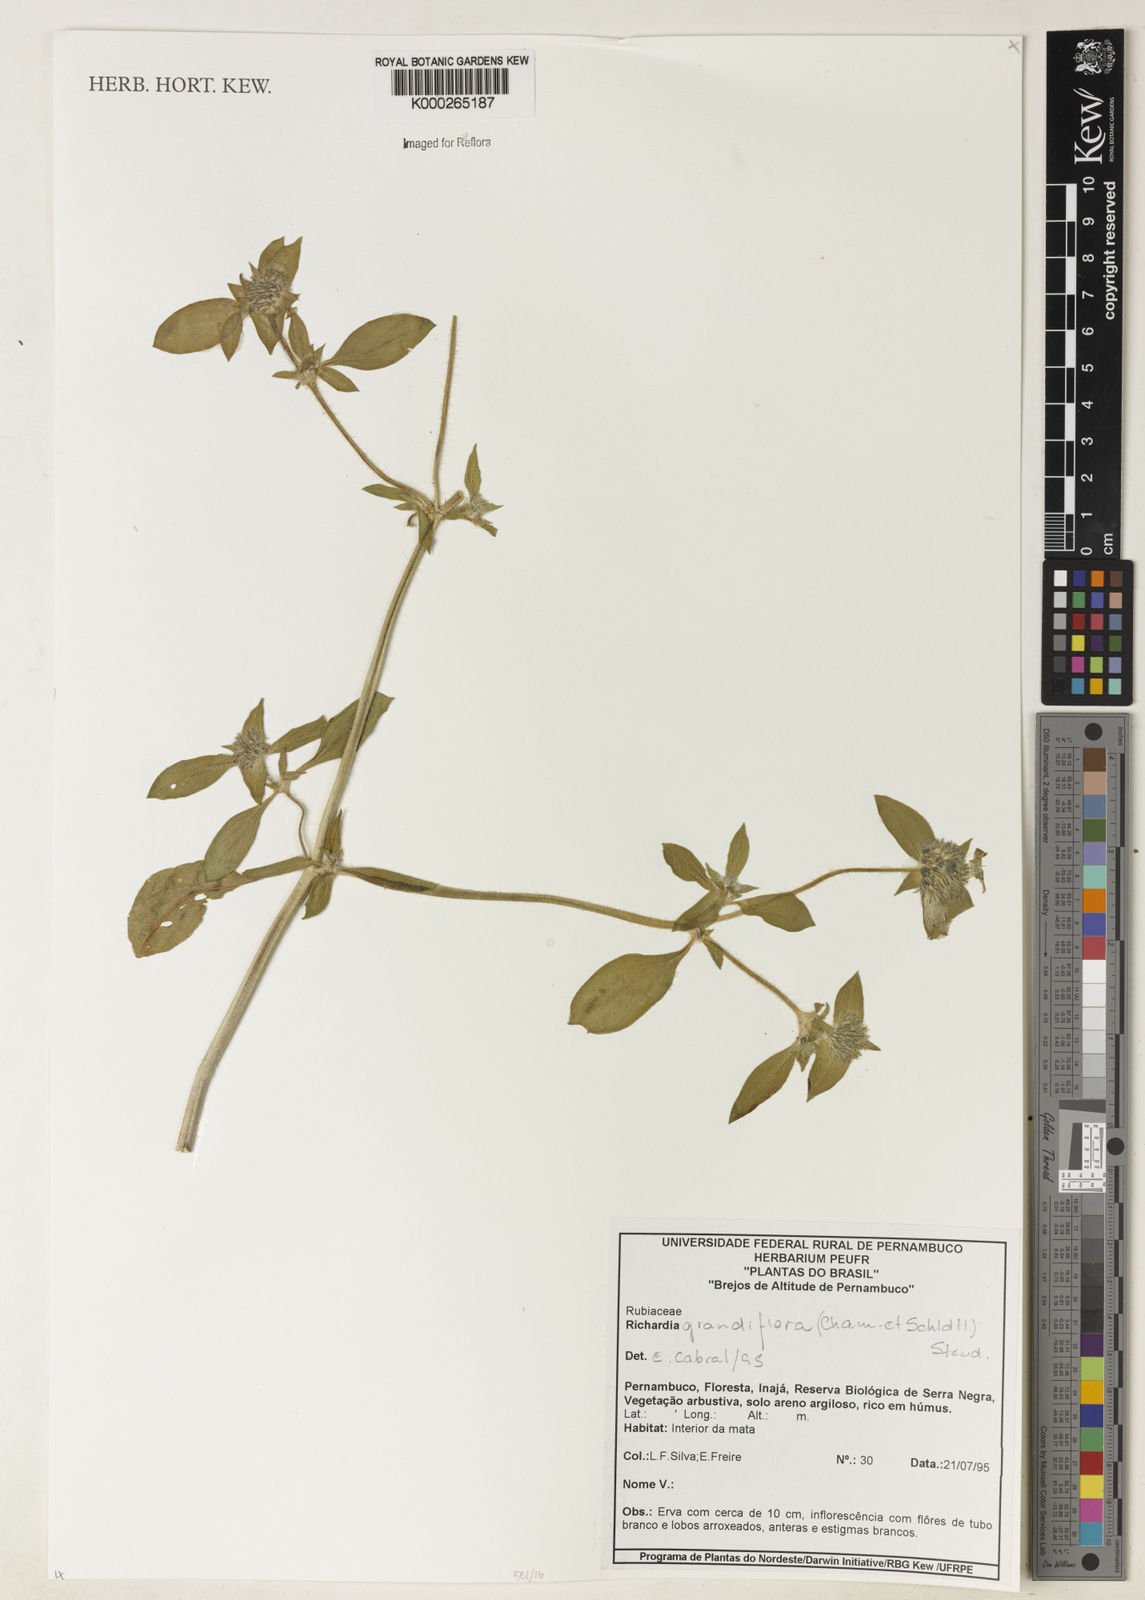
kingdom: Plantae
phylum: Tracheophyta
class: Magnoliopsida
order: Gentianales
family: Rubiaceae
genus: Richardia
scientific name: Richardia grandiflora
